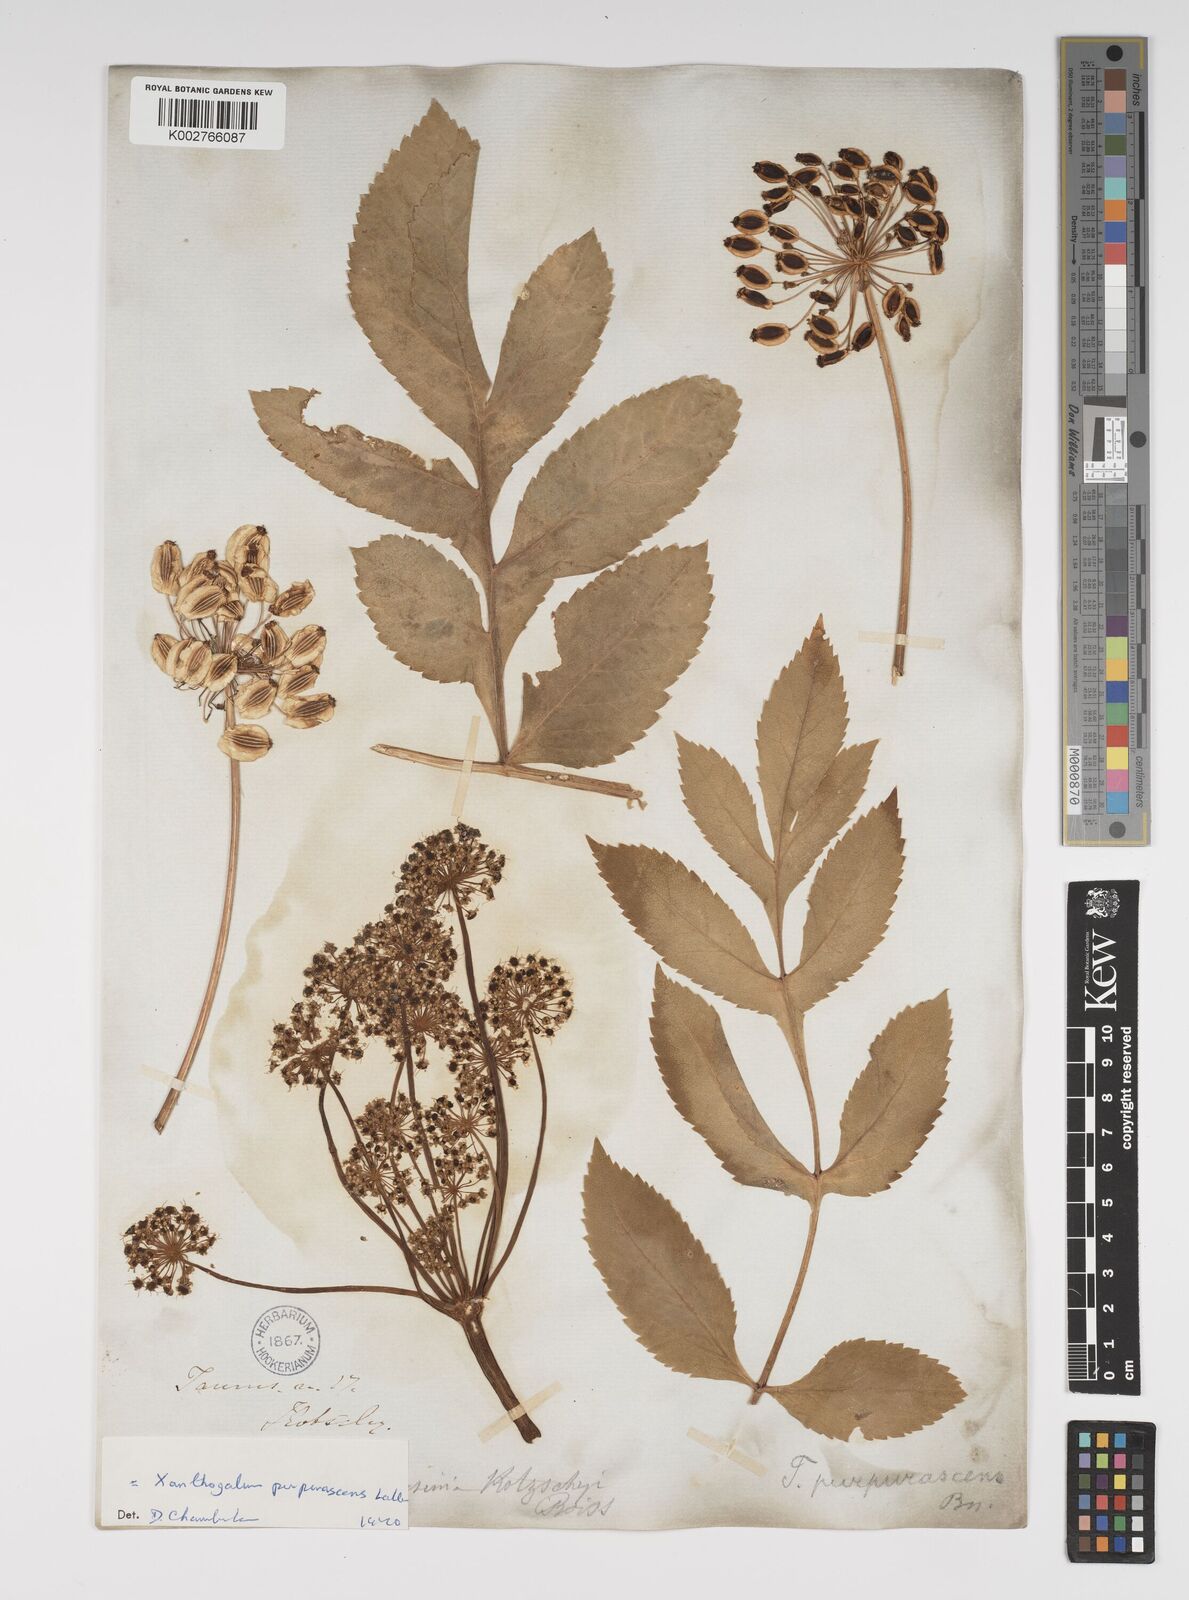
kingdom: Plantae
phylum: Tracheophyta
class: Magnoliopsida
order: Apiales
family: Apiaceae
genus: Xanthogalum
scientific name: Xanthogalum purpurascens
